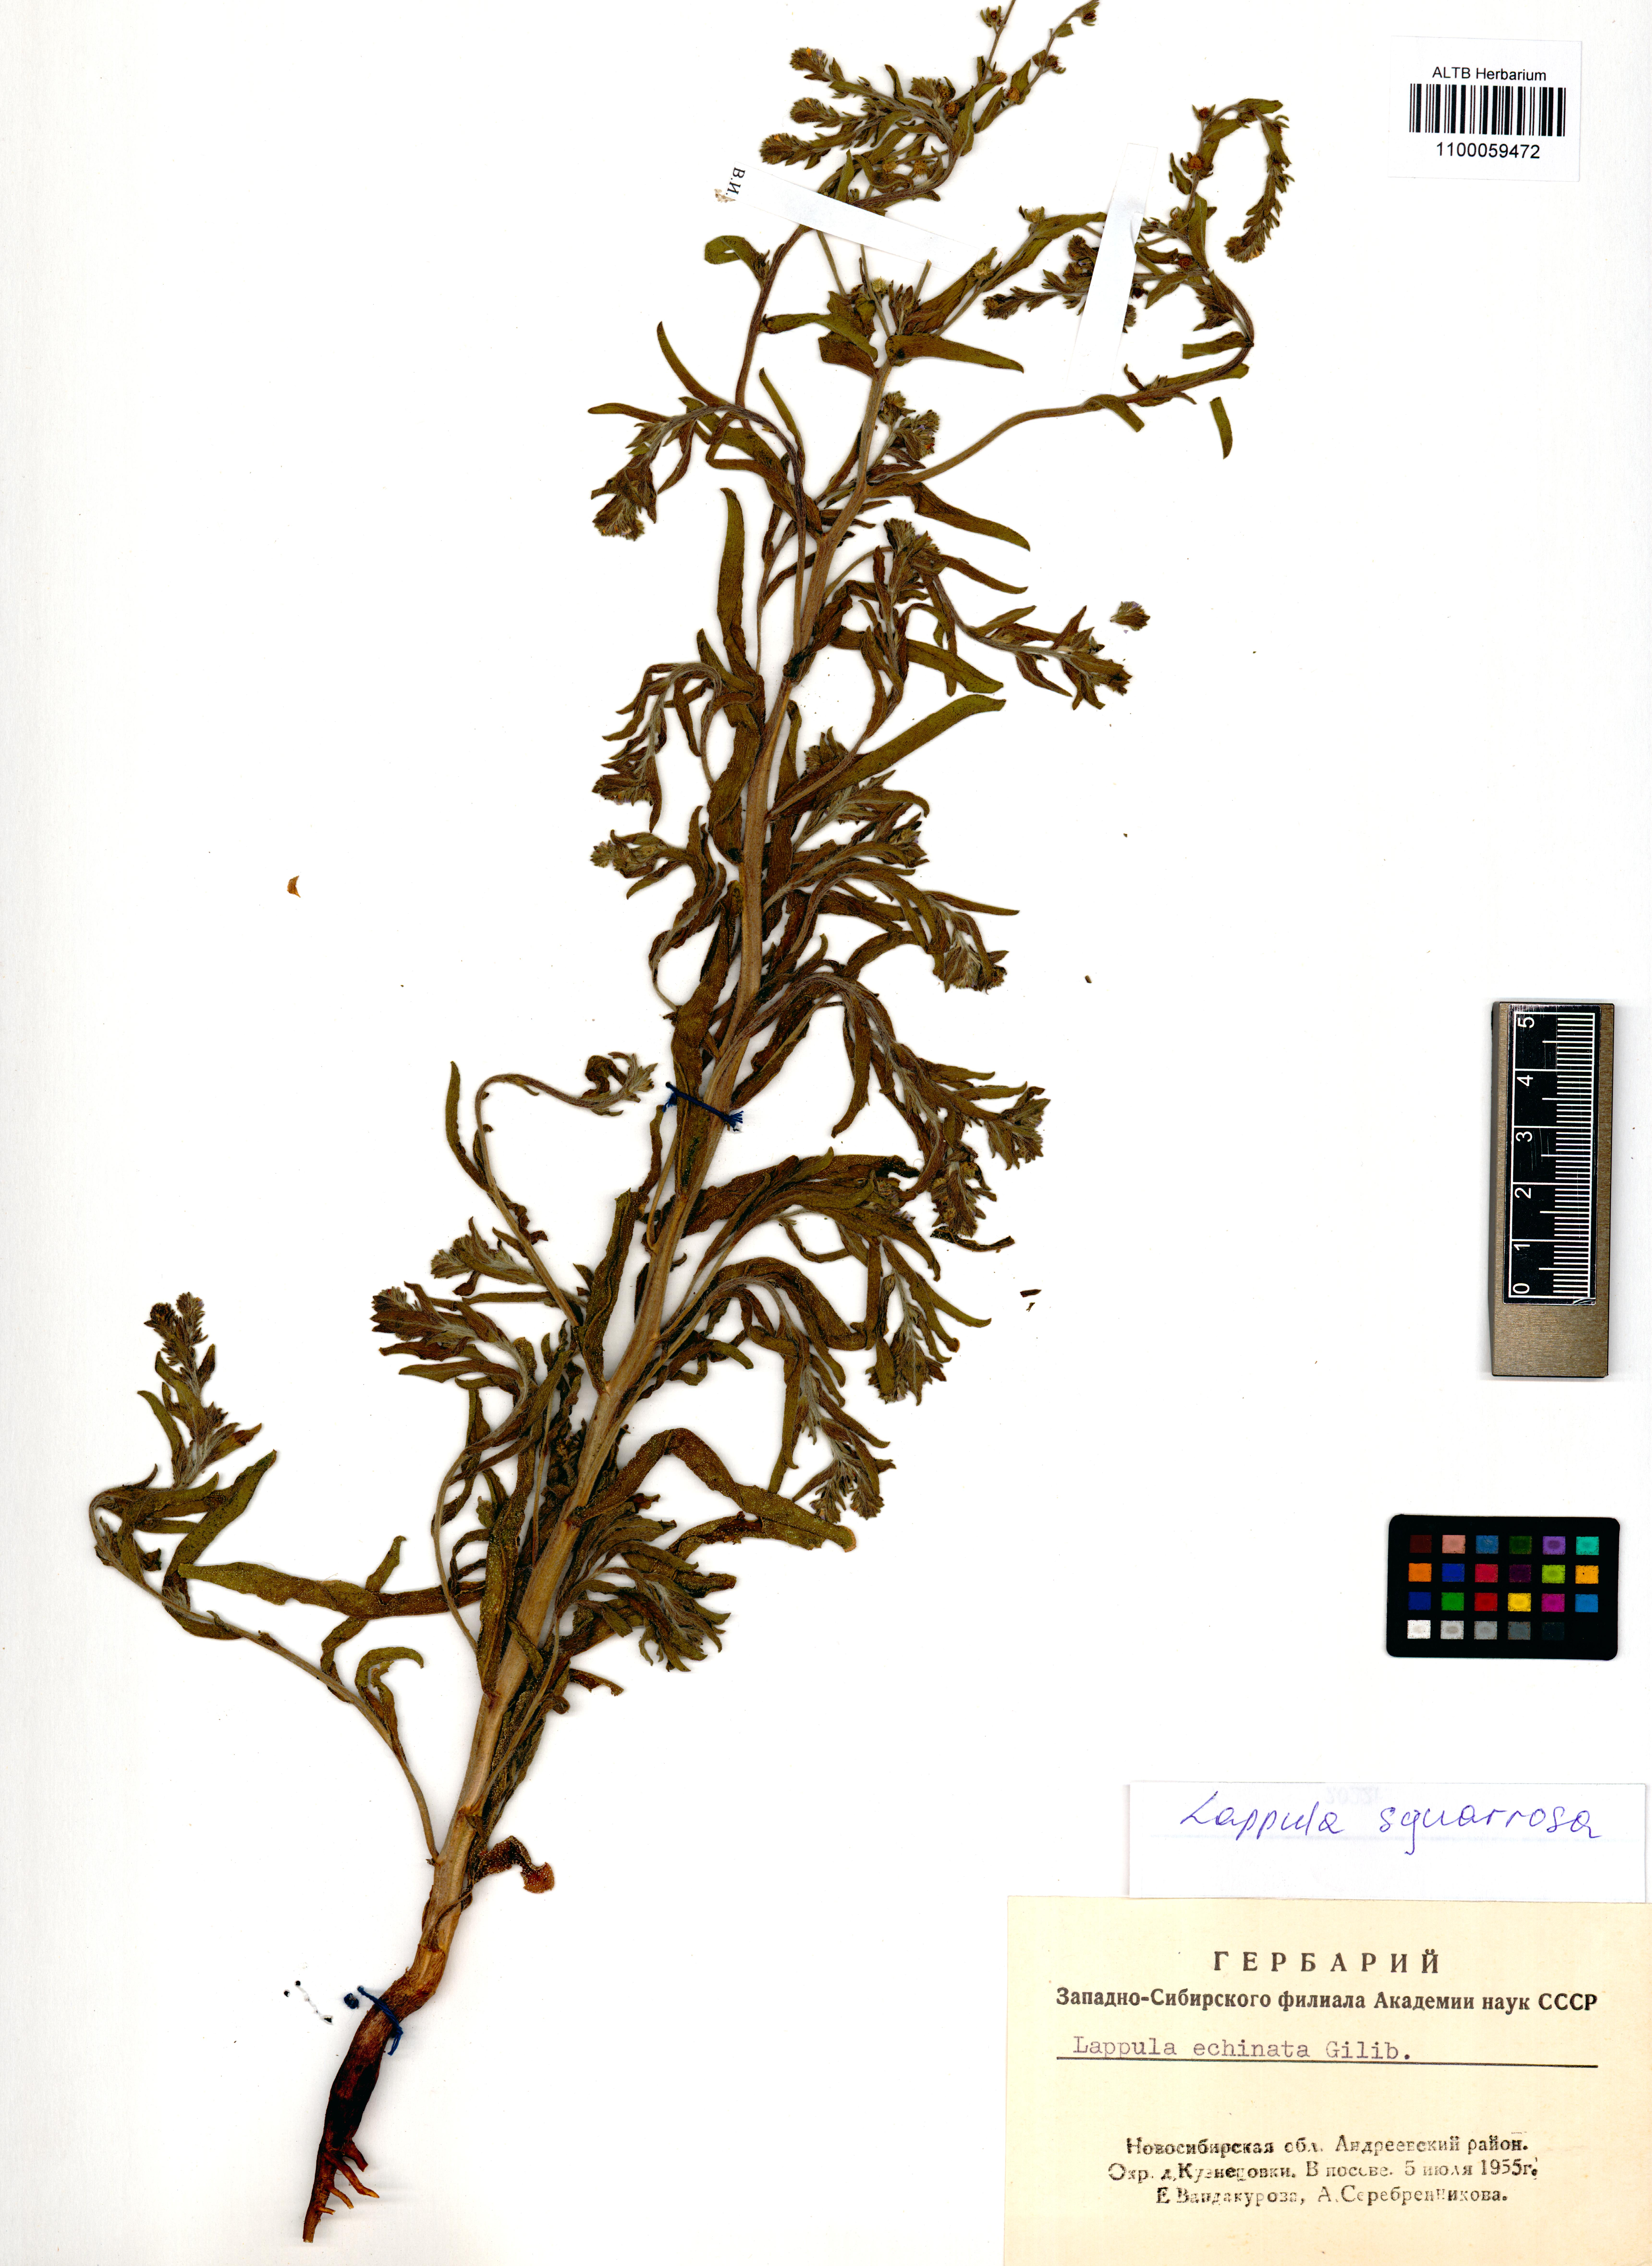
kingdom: Plantae
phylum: Tracheophyta
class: Magnoliopsida
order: Boraginales
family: Boraginaceae
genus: Lappula
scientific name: Lappula squarrosa
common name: European stickseed
